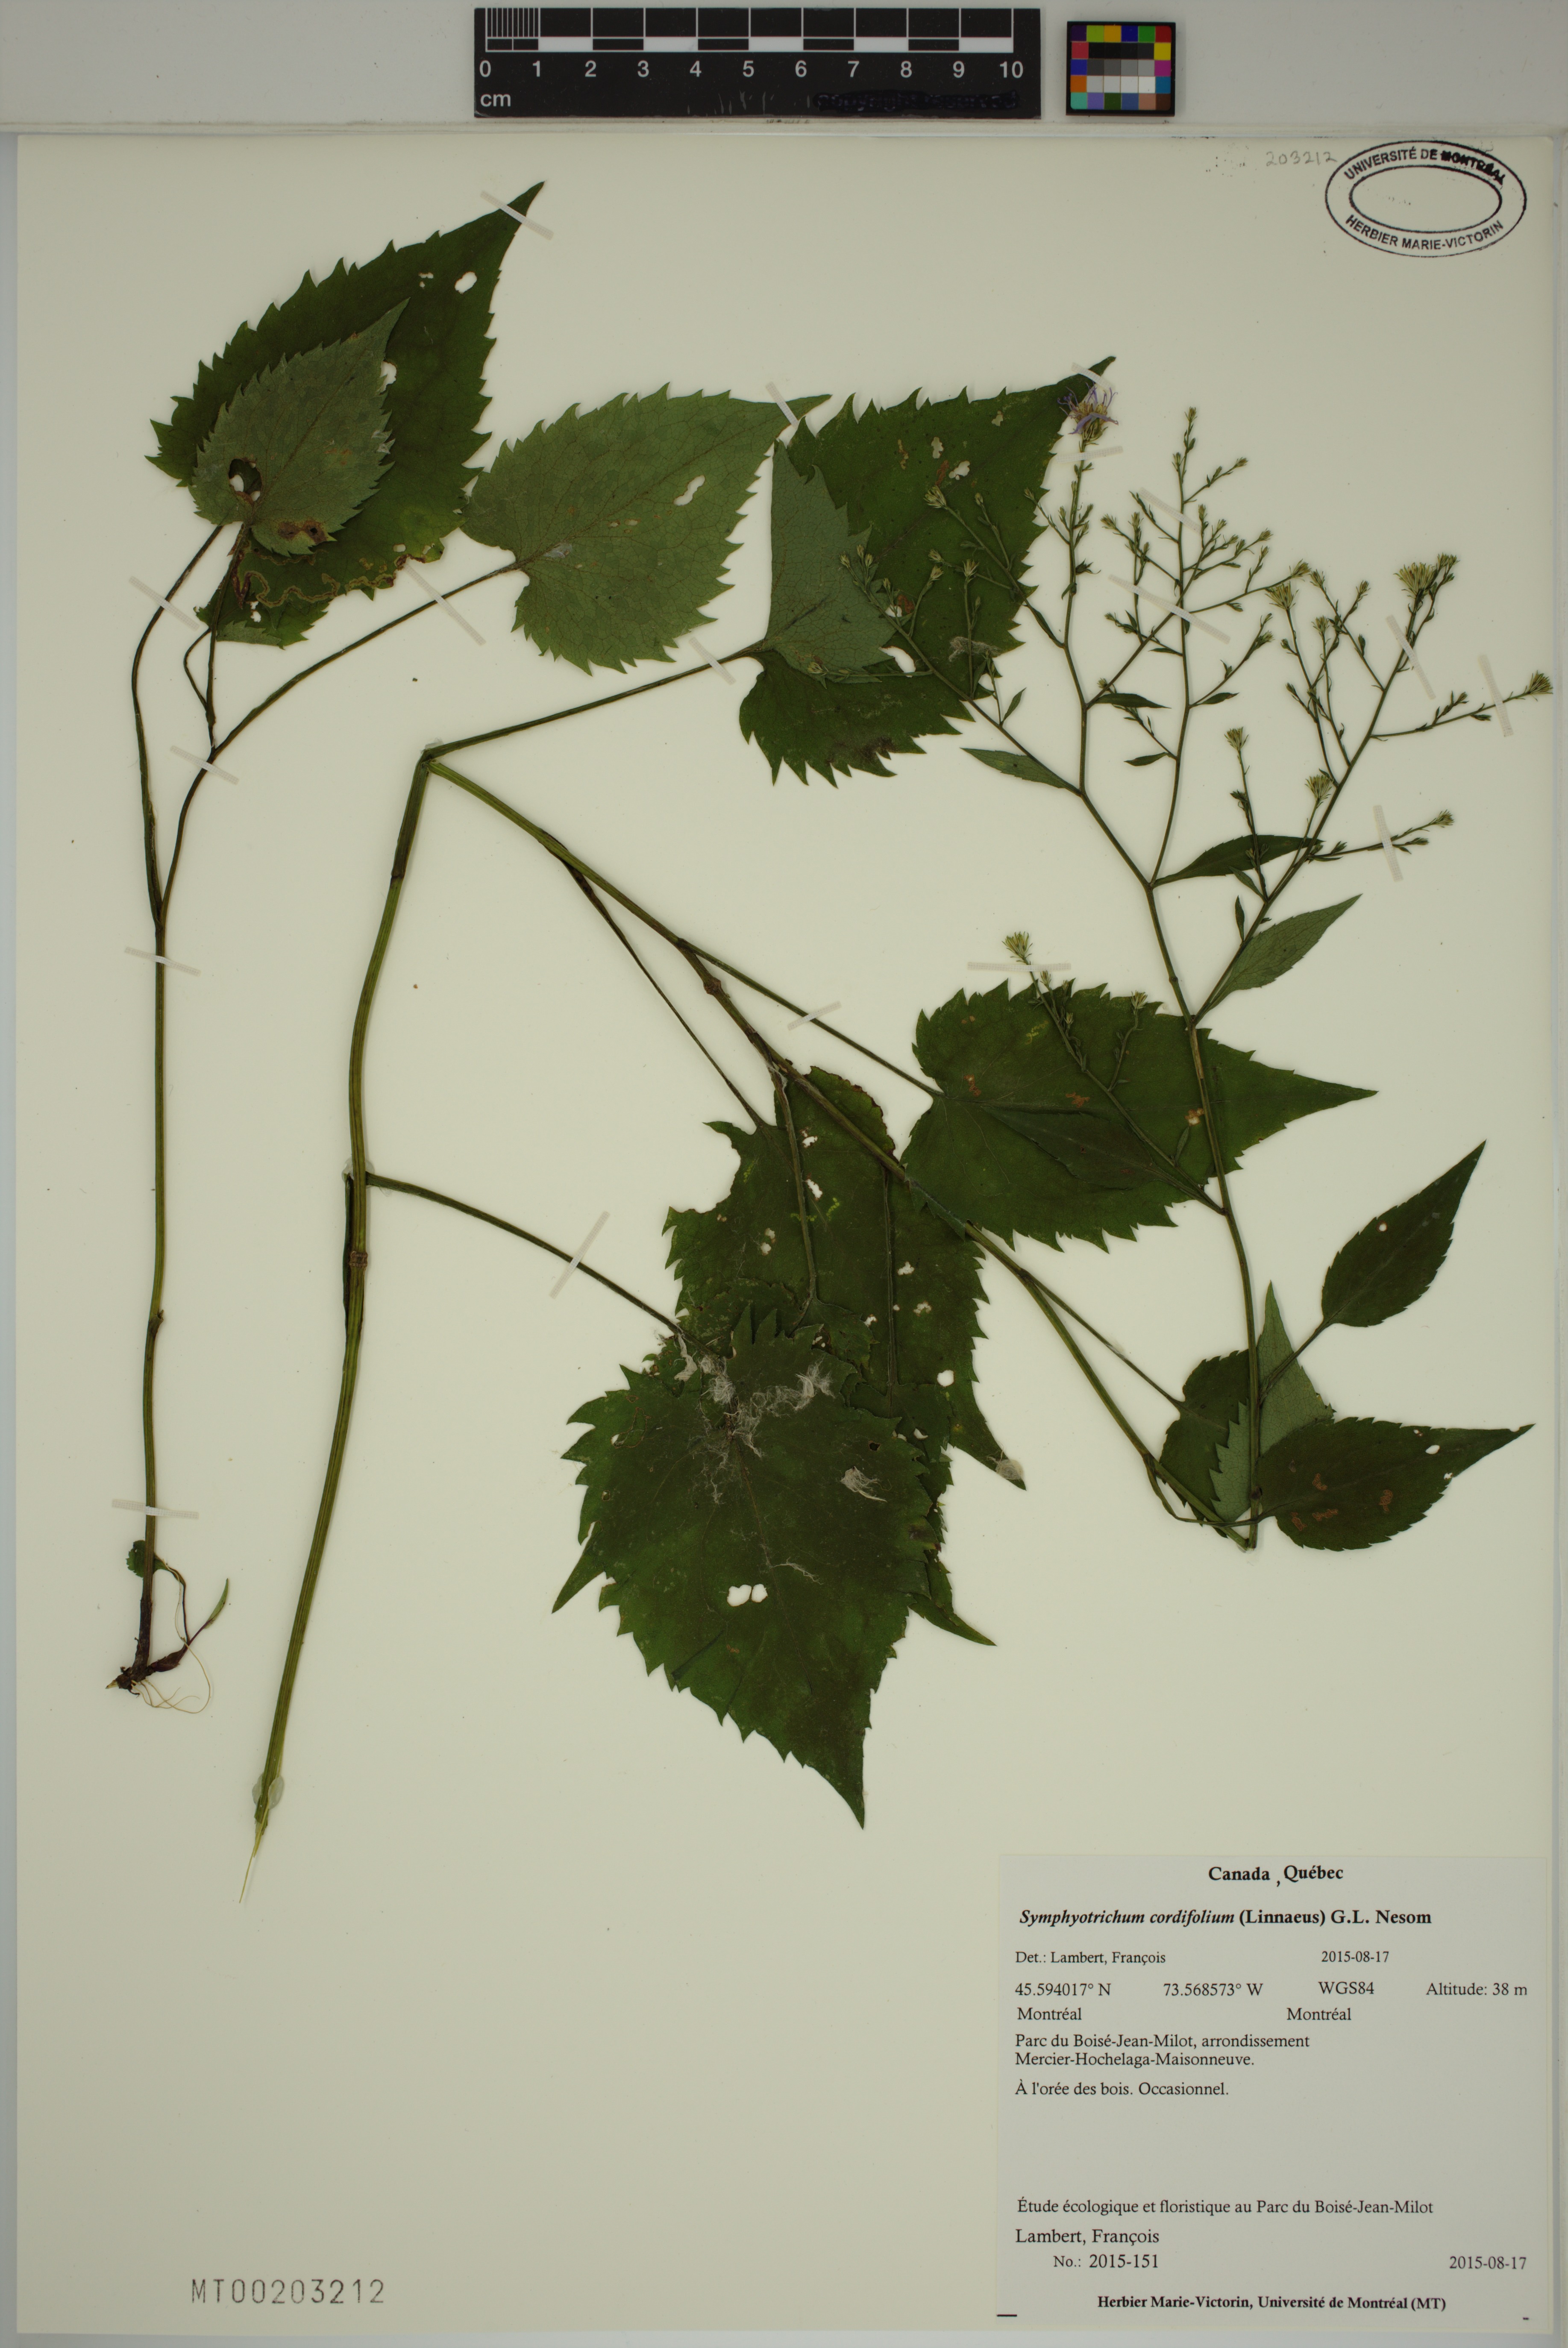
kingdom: Plantae
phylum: Tracheophyta
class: Magnoliopsida
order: Asterales
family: Asteraceae
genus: Symphyotrichum
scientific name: Symphyotrichum cordifolium
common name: Beeweed
